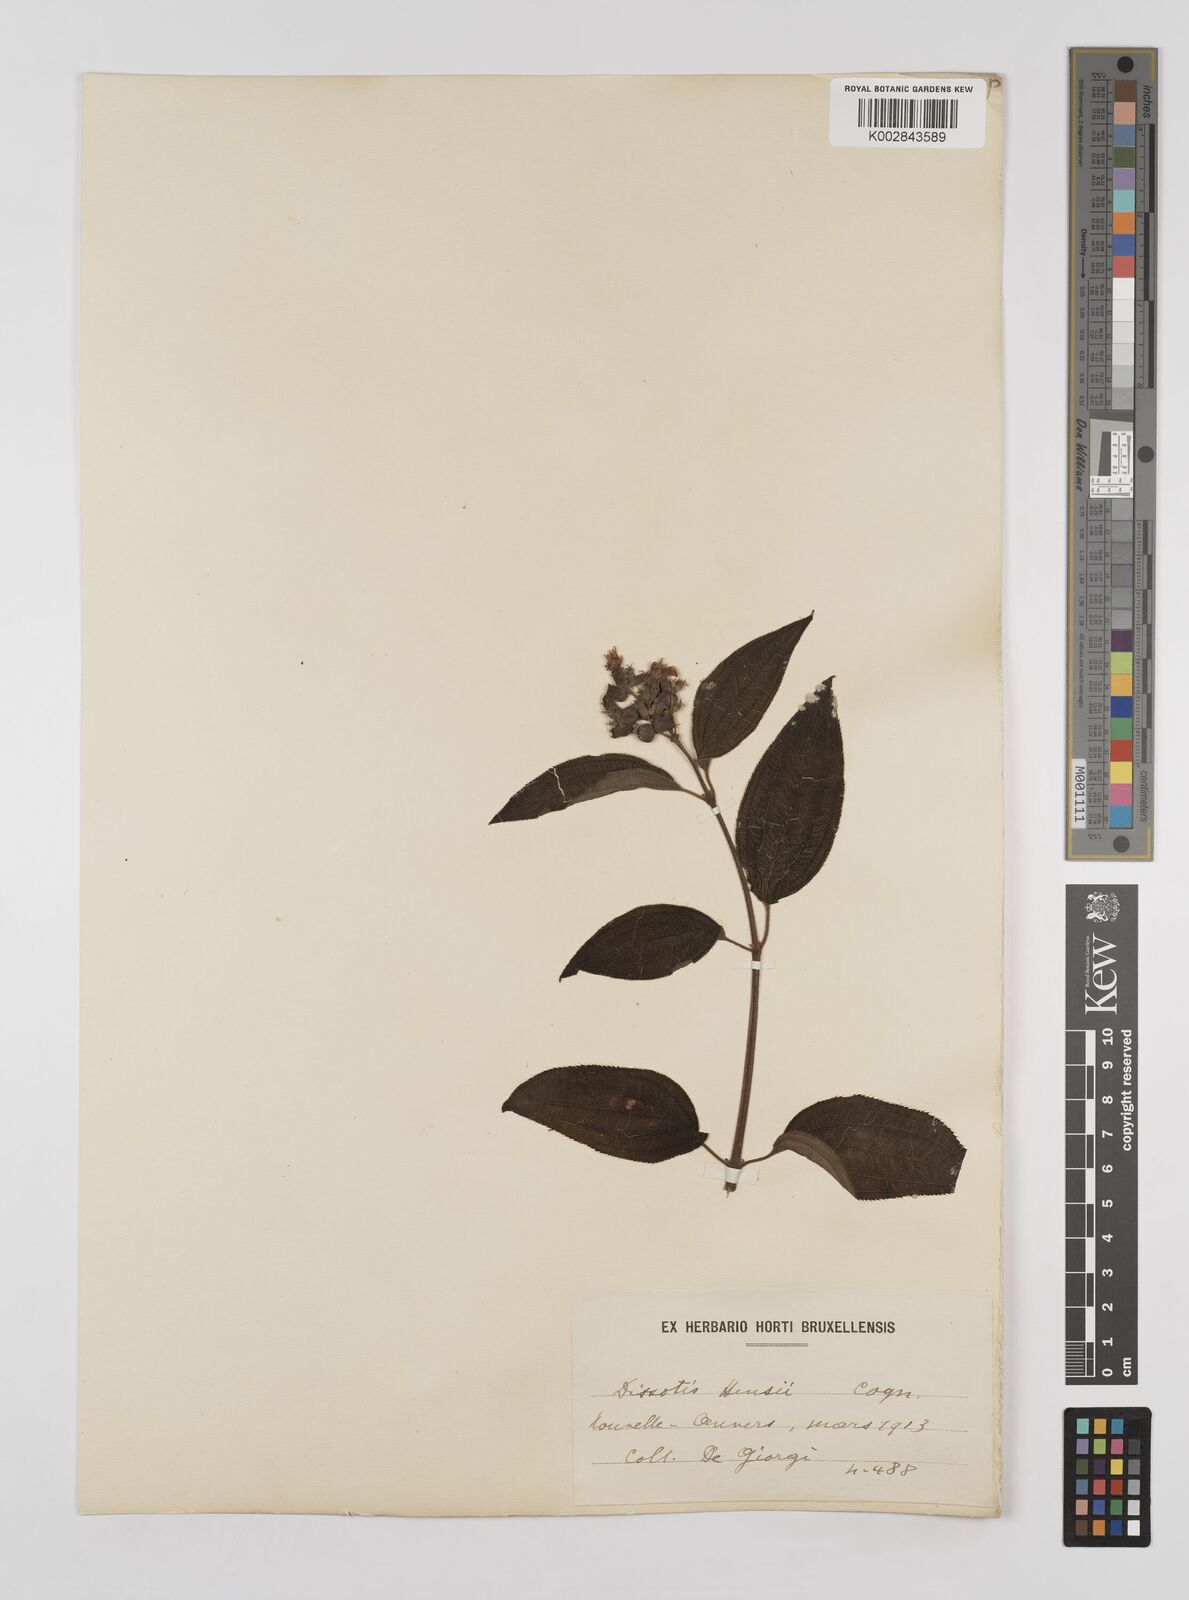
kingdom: Plantae
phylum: Tracheophyta
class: Magnoliopsida
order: Myrtales
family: Melastomataceae
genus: Dupineta
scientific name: Dupineta hensii
